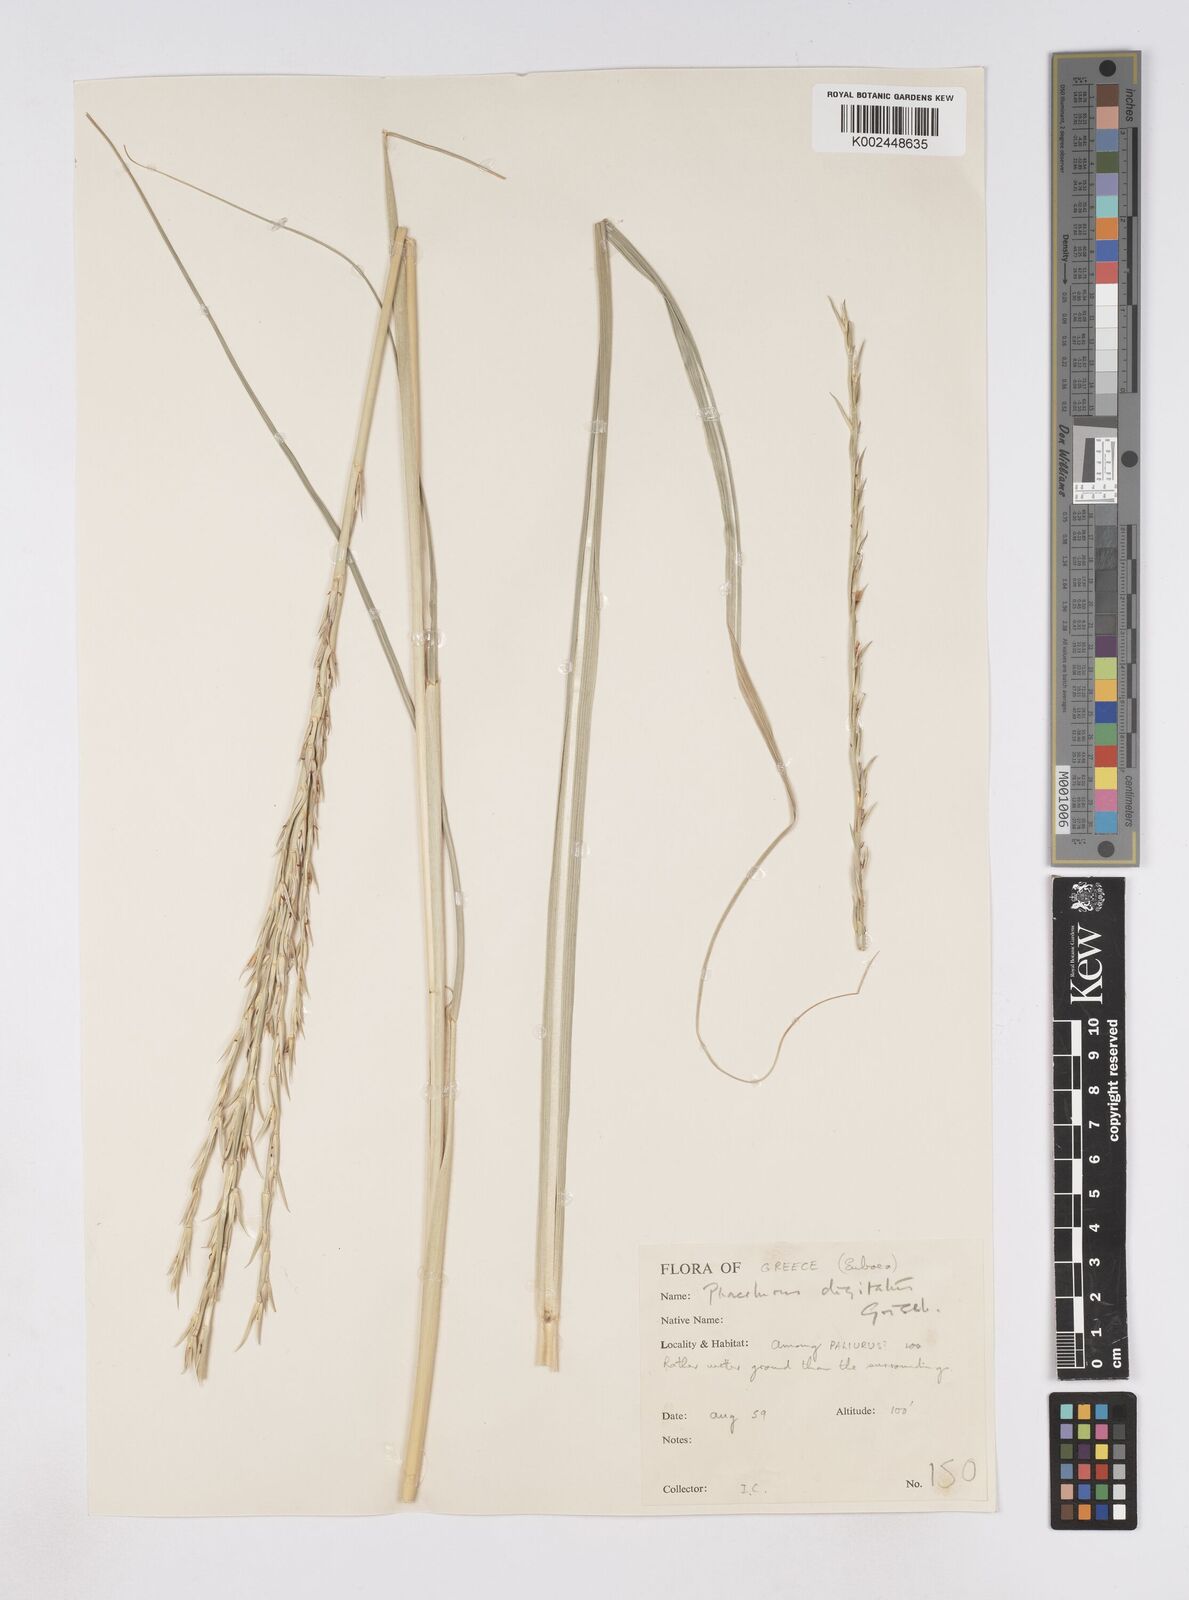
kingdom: Plantae
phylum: Tracheophyta
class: Liliopsida
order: Poales
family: Poaceae
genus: Phacelurus
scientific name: Phacelurus digitatus
